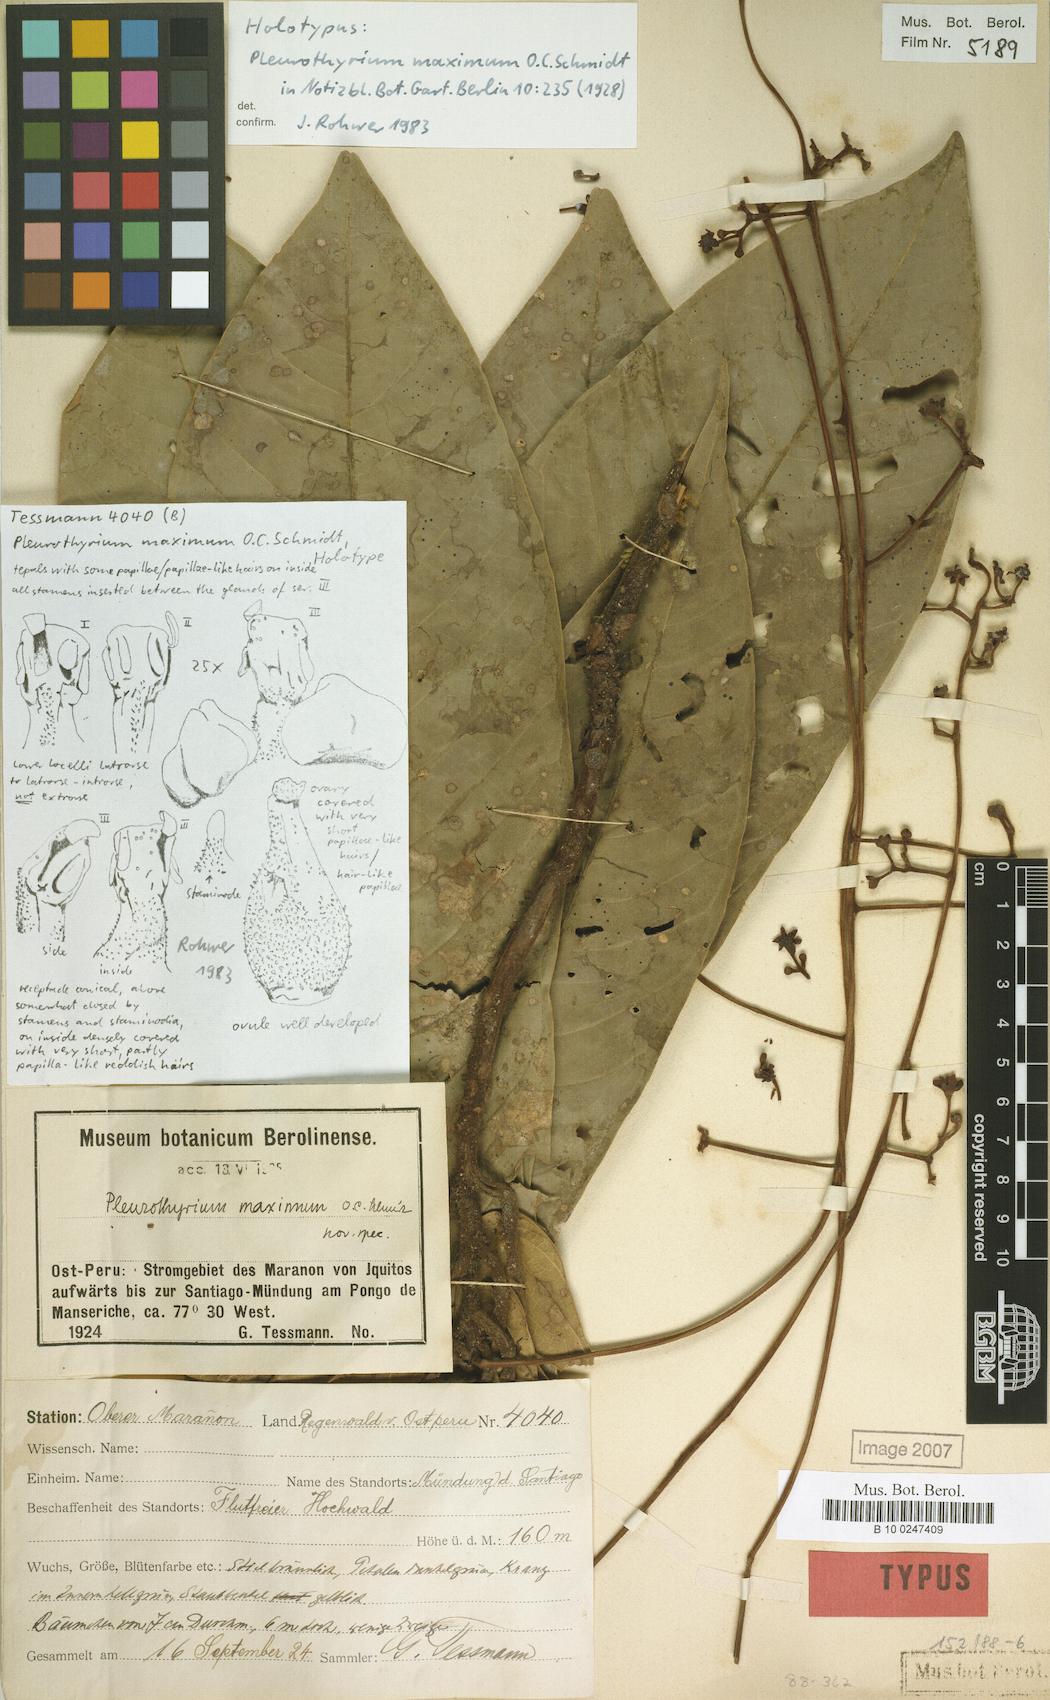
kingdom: Plantae
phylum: Tracheophyta
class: Magnoliopsida
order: Laurales
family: Lauraceae
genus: Pleurothyrium
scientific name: Pleurothyrium maximum
